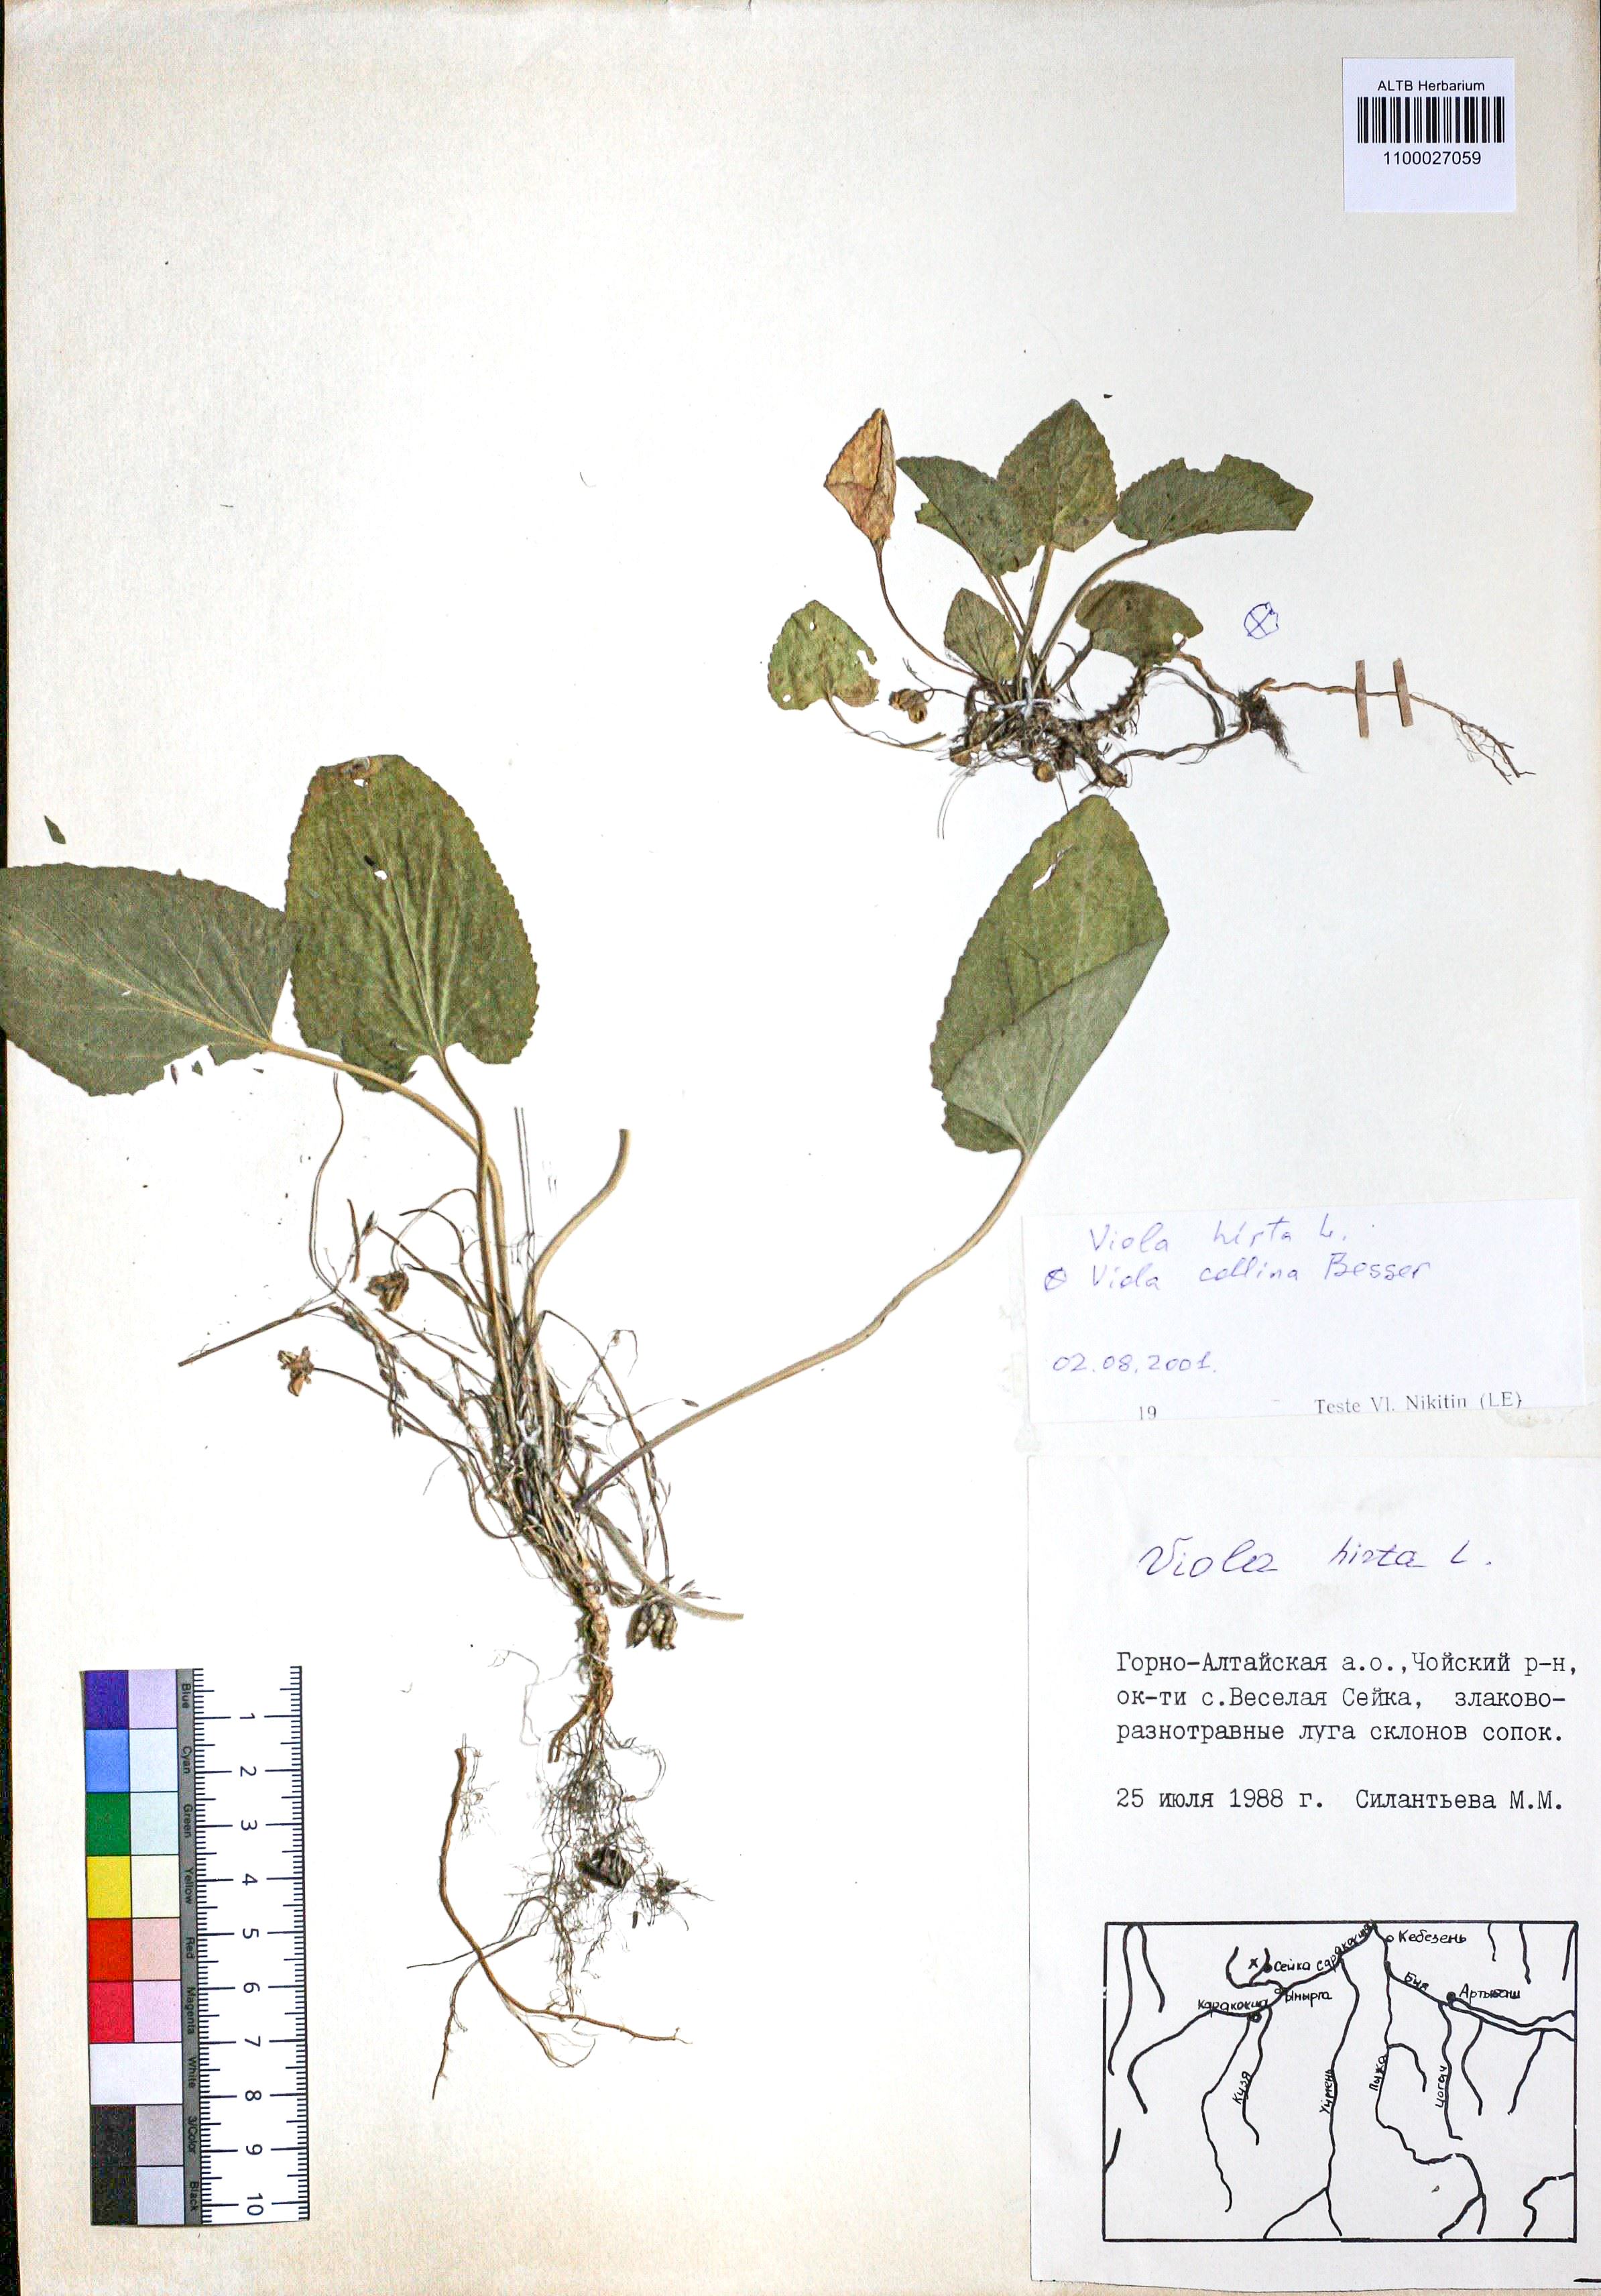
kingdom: Plantae
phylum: Tracheophyta
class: Magnoliopsida
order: Malpighiales
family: Violaceae
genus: Viola
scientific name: Viola hirta
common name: Hairy violet
